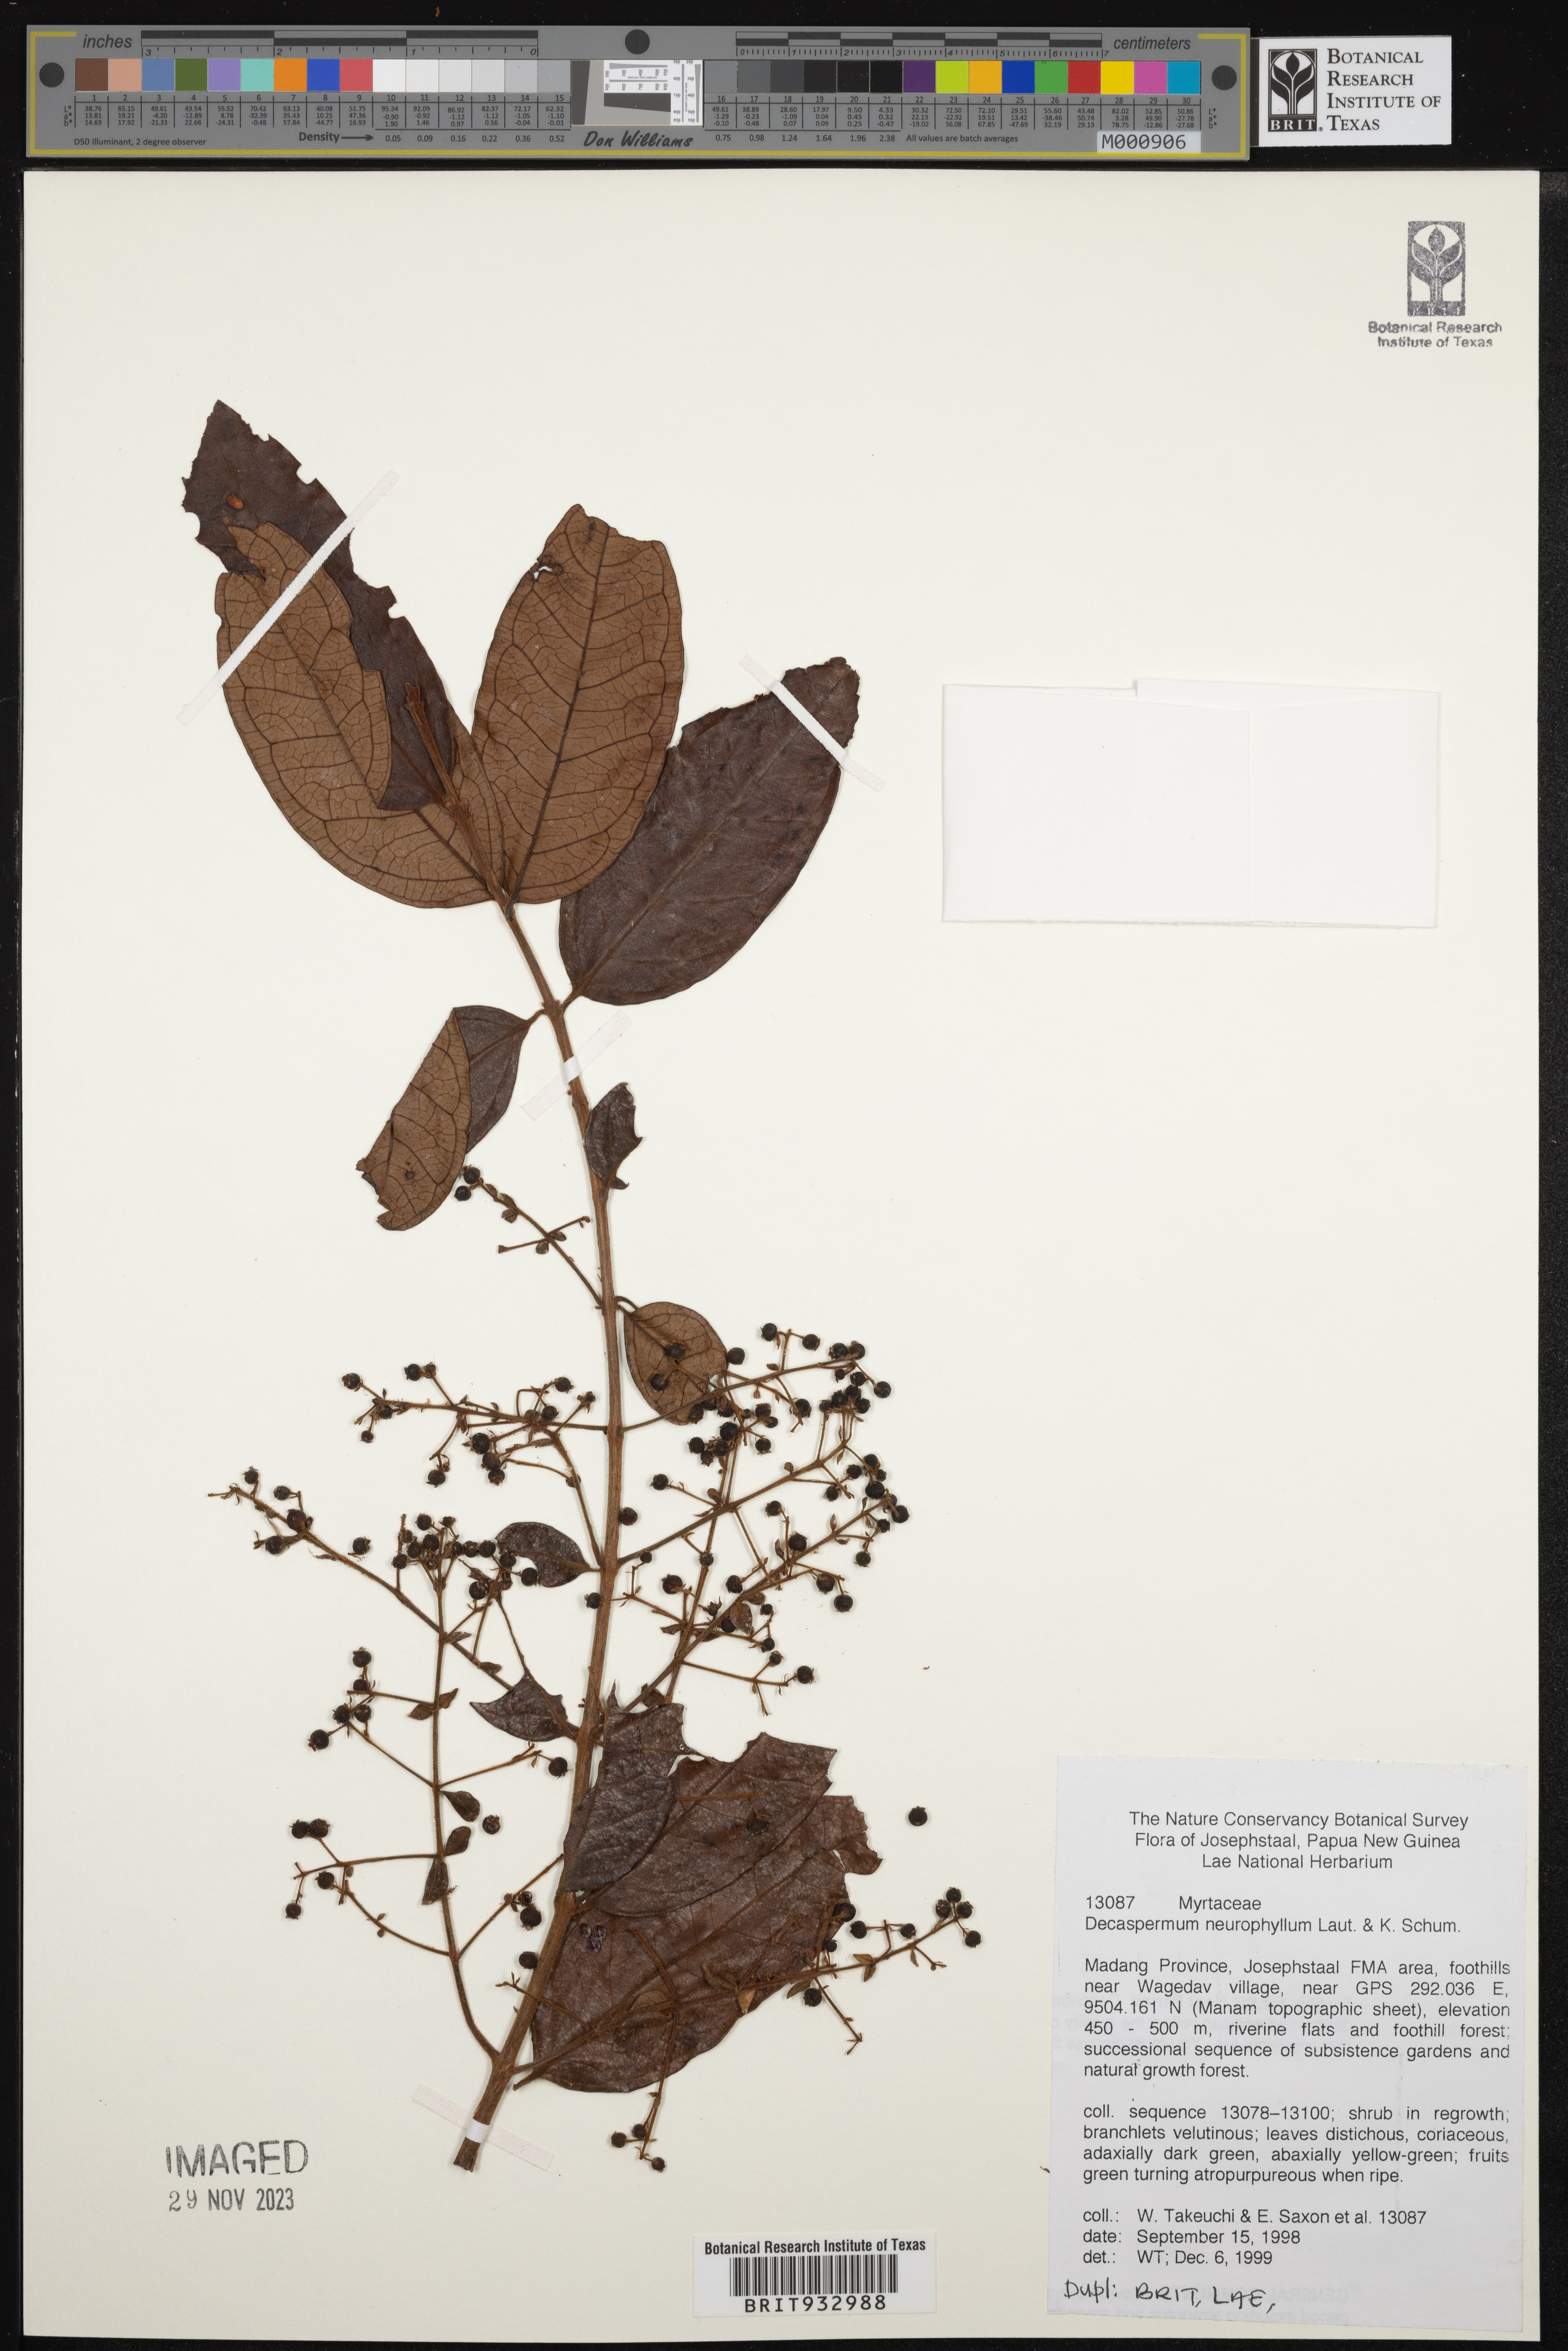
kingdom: Plantae
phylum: Tracheophyta
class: Magnoliopsida
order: Myrtales
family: Myrtaceae
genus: Decaspermum
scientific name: Decaspermum
